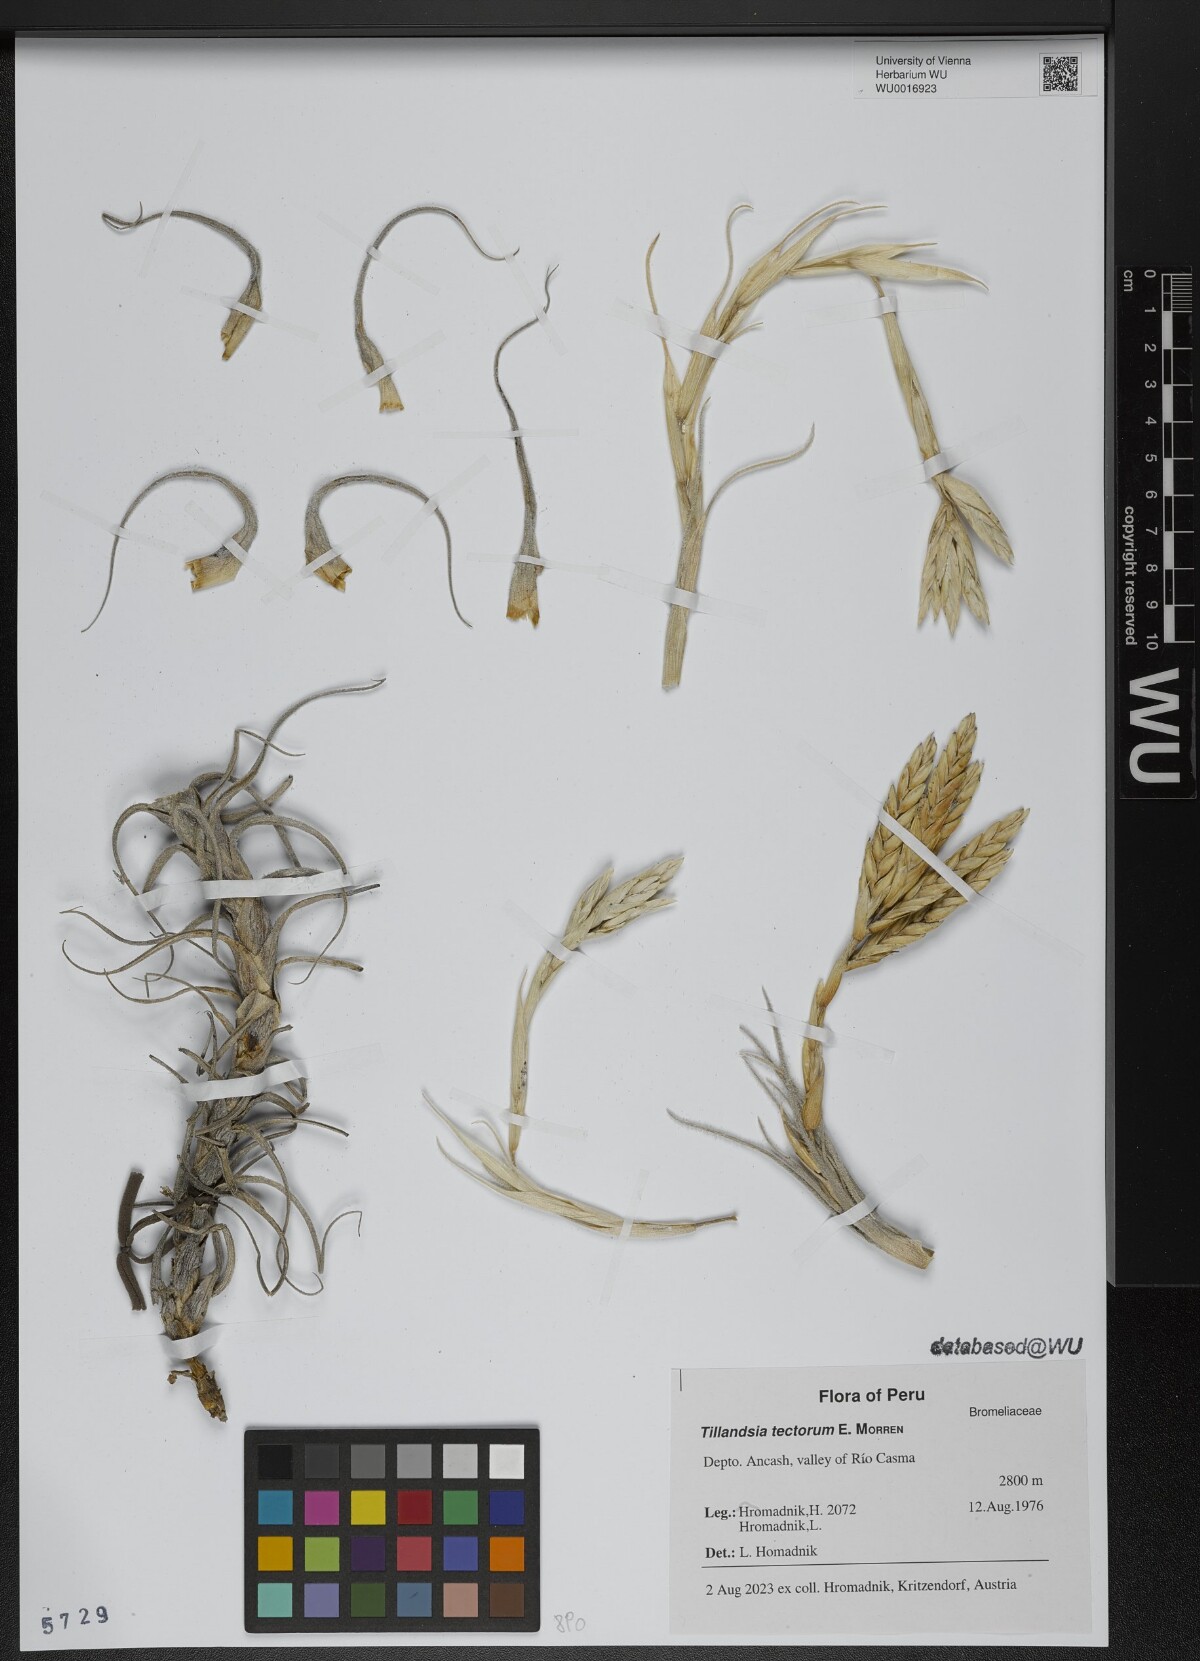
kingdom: Plantae
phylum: Tracheophyta
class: Liliopsida
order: Poales
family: Bromeliaceae
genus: Tillandsia
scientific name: Tillandsia tectorum
